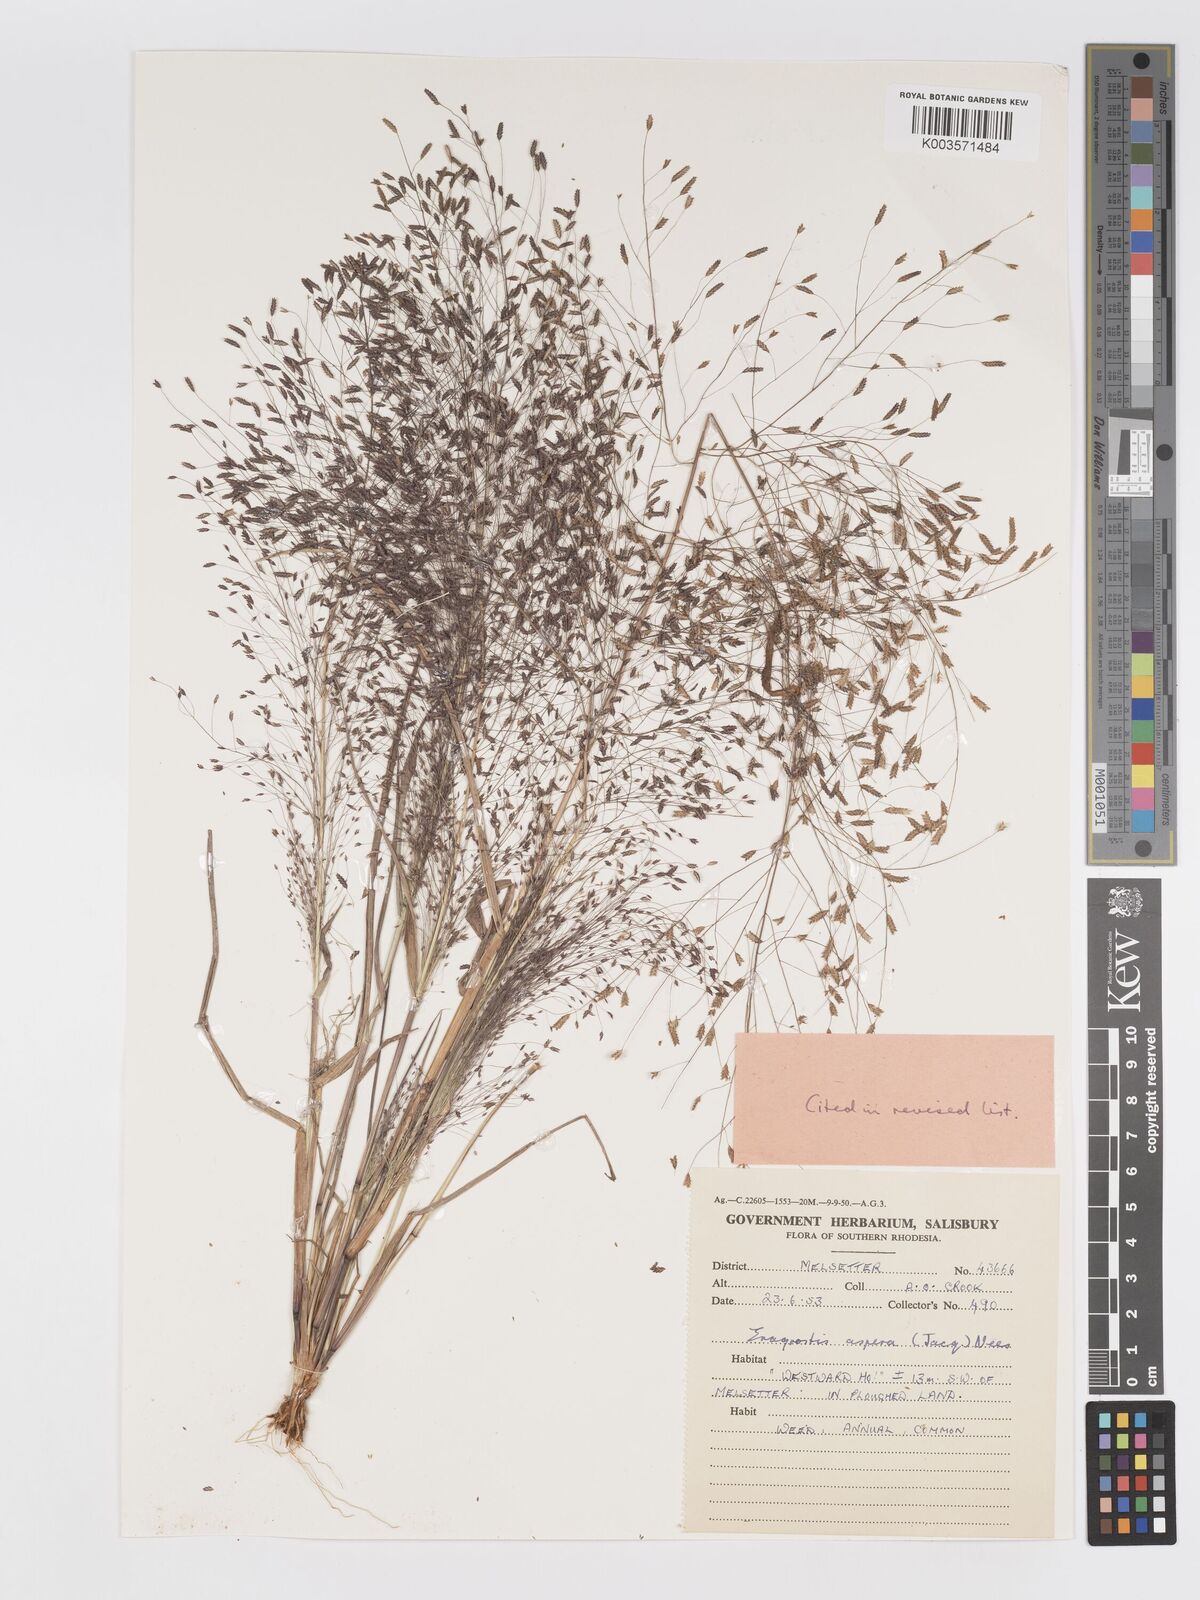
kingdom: Plantae
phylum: Tracheophyta
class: Liliopsida
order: Poales
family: Poaceae
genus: Eragrostis
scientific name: Eragrostis aspera
